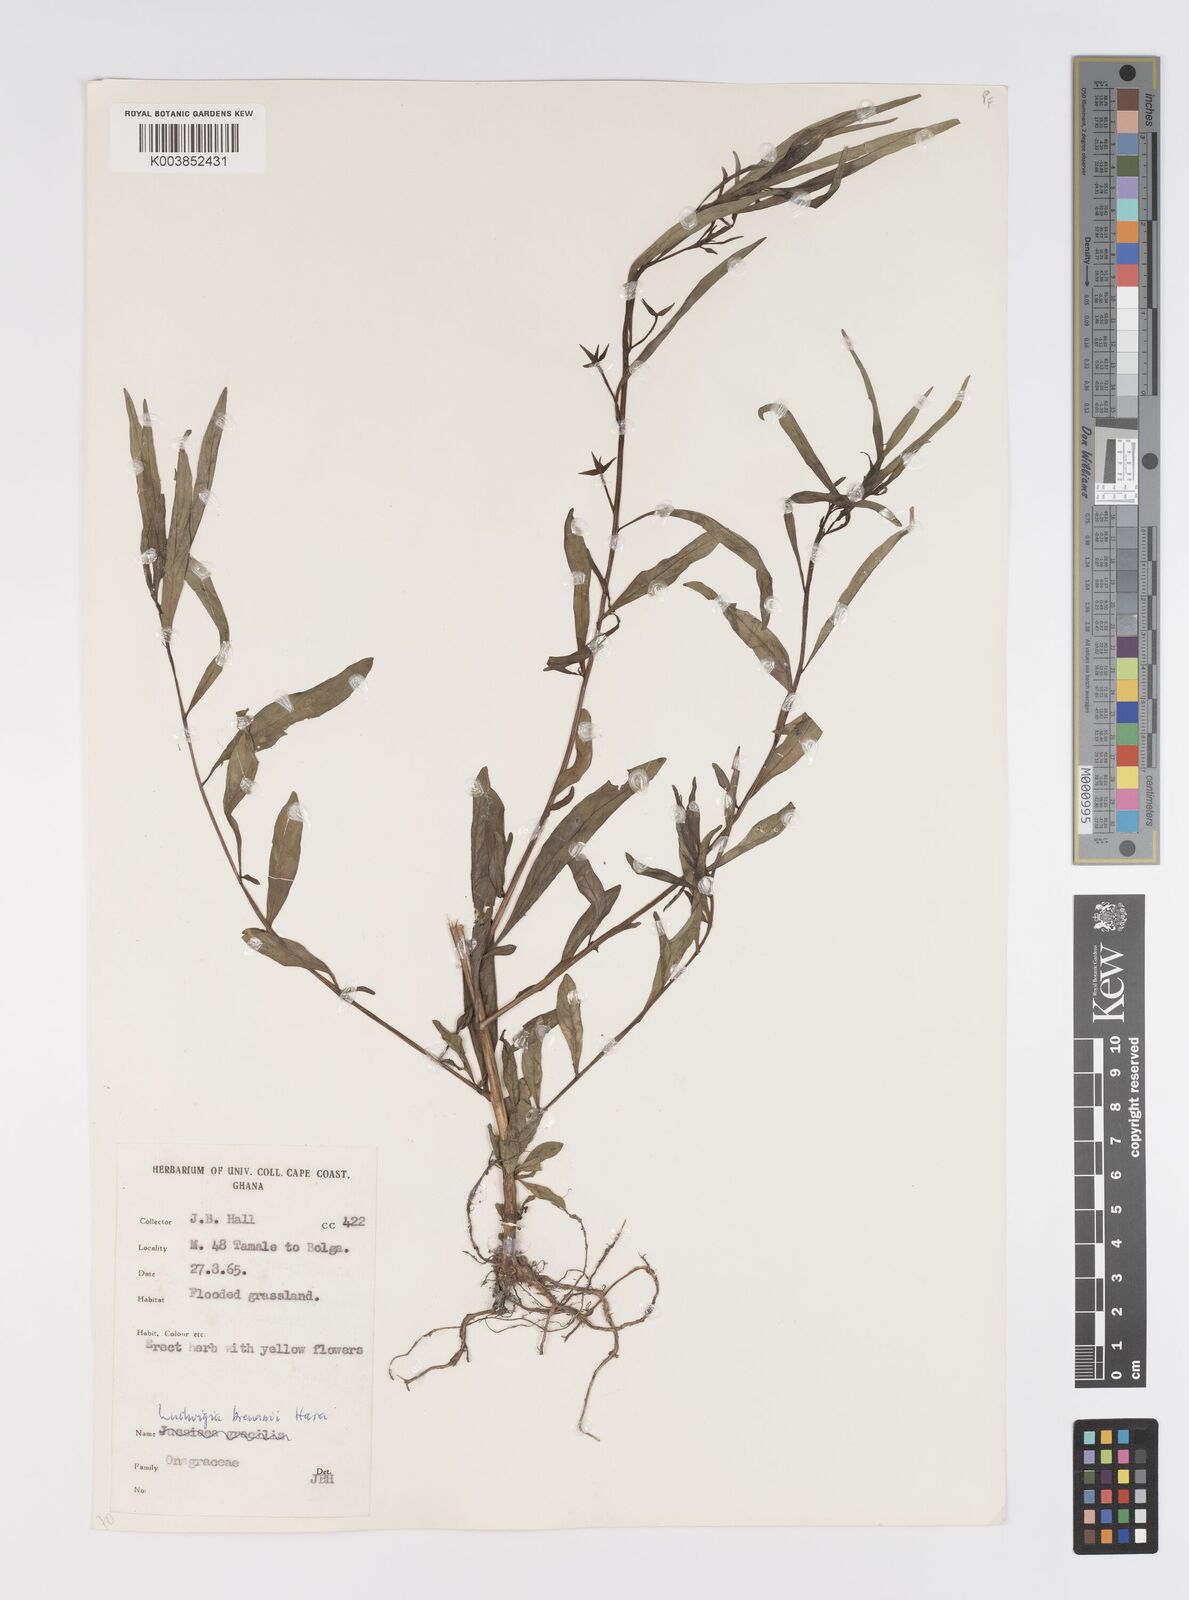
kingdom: Plantae
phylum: Tracheophyta
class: Magnoliopsida
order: Myrtales
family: Onagraceae
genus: Ludwigia
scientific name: Ludwigia brenanii
